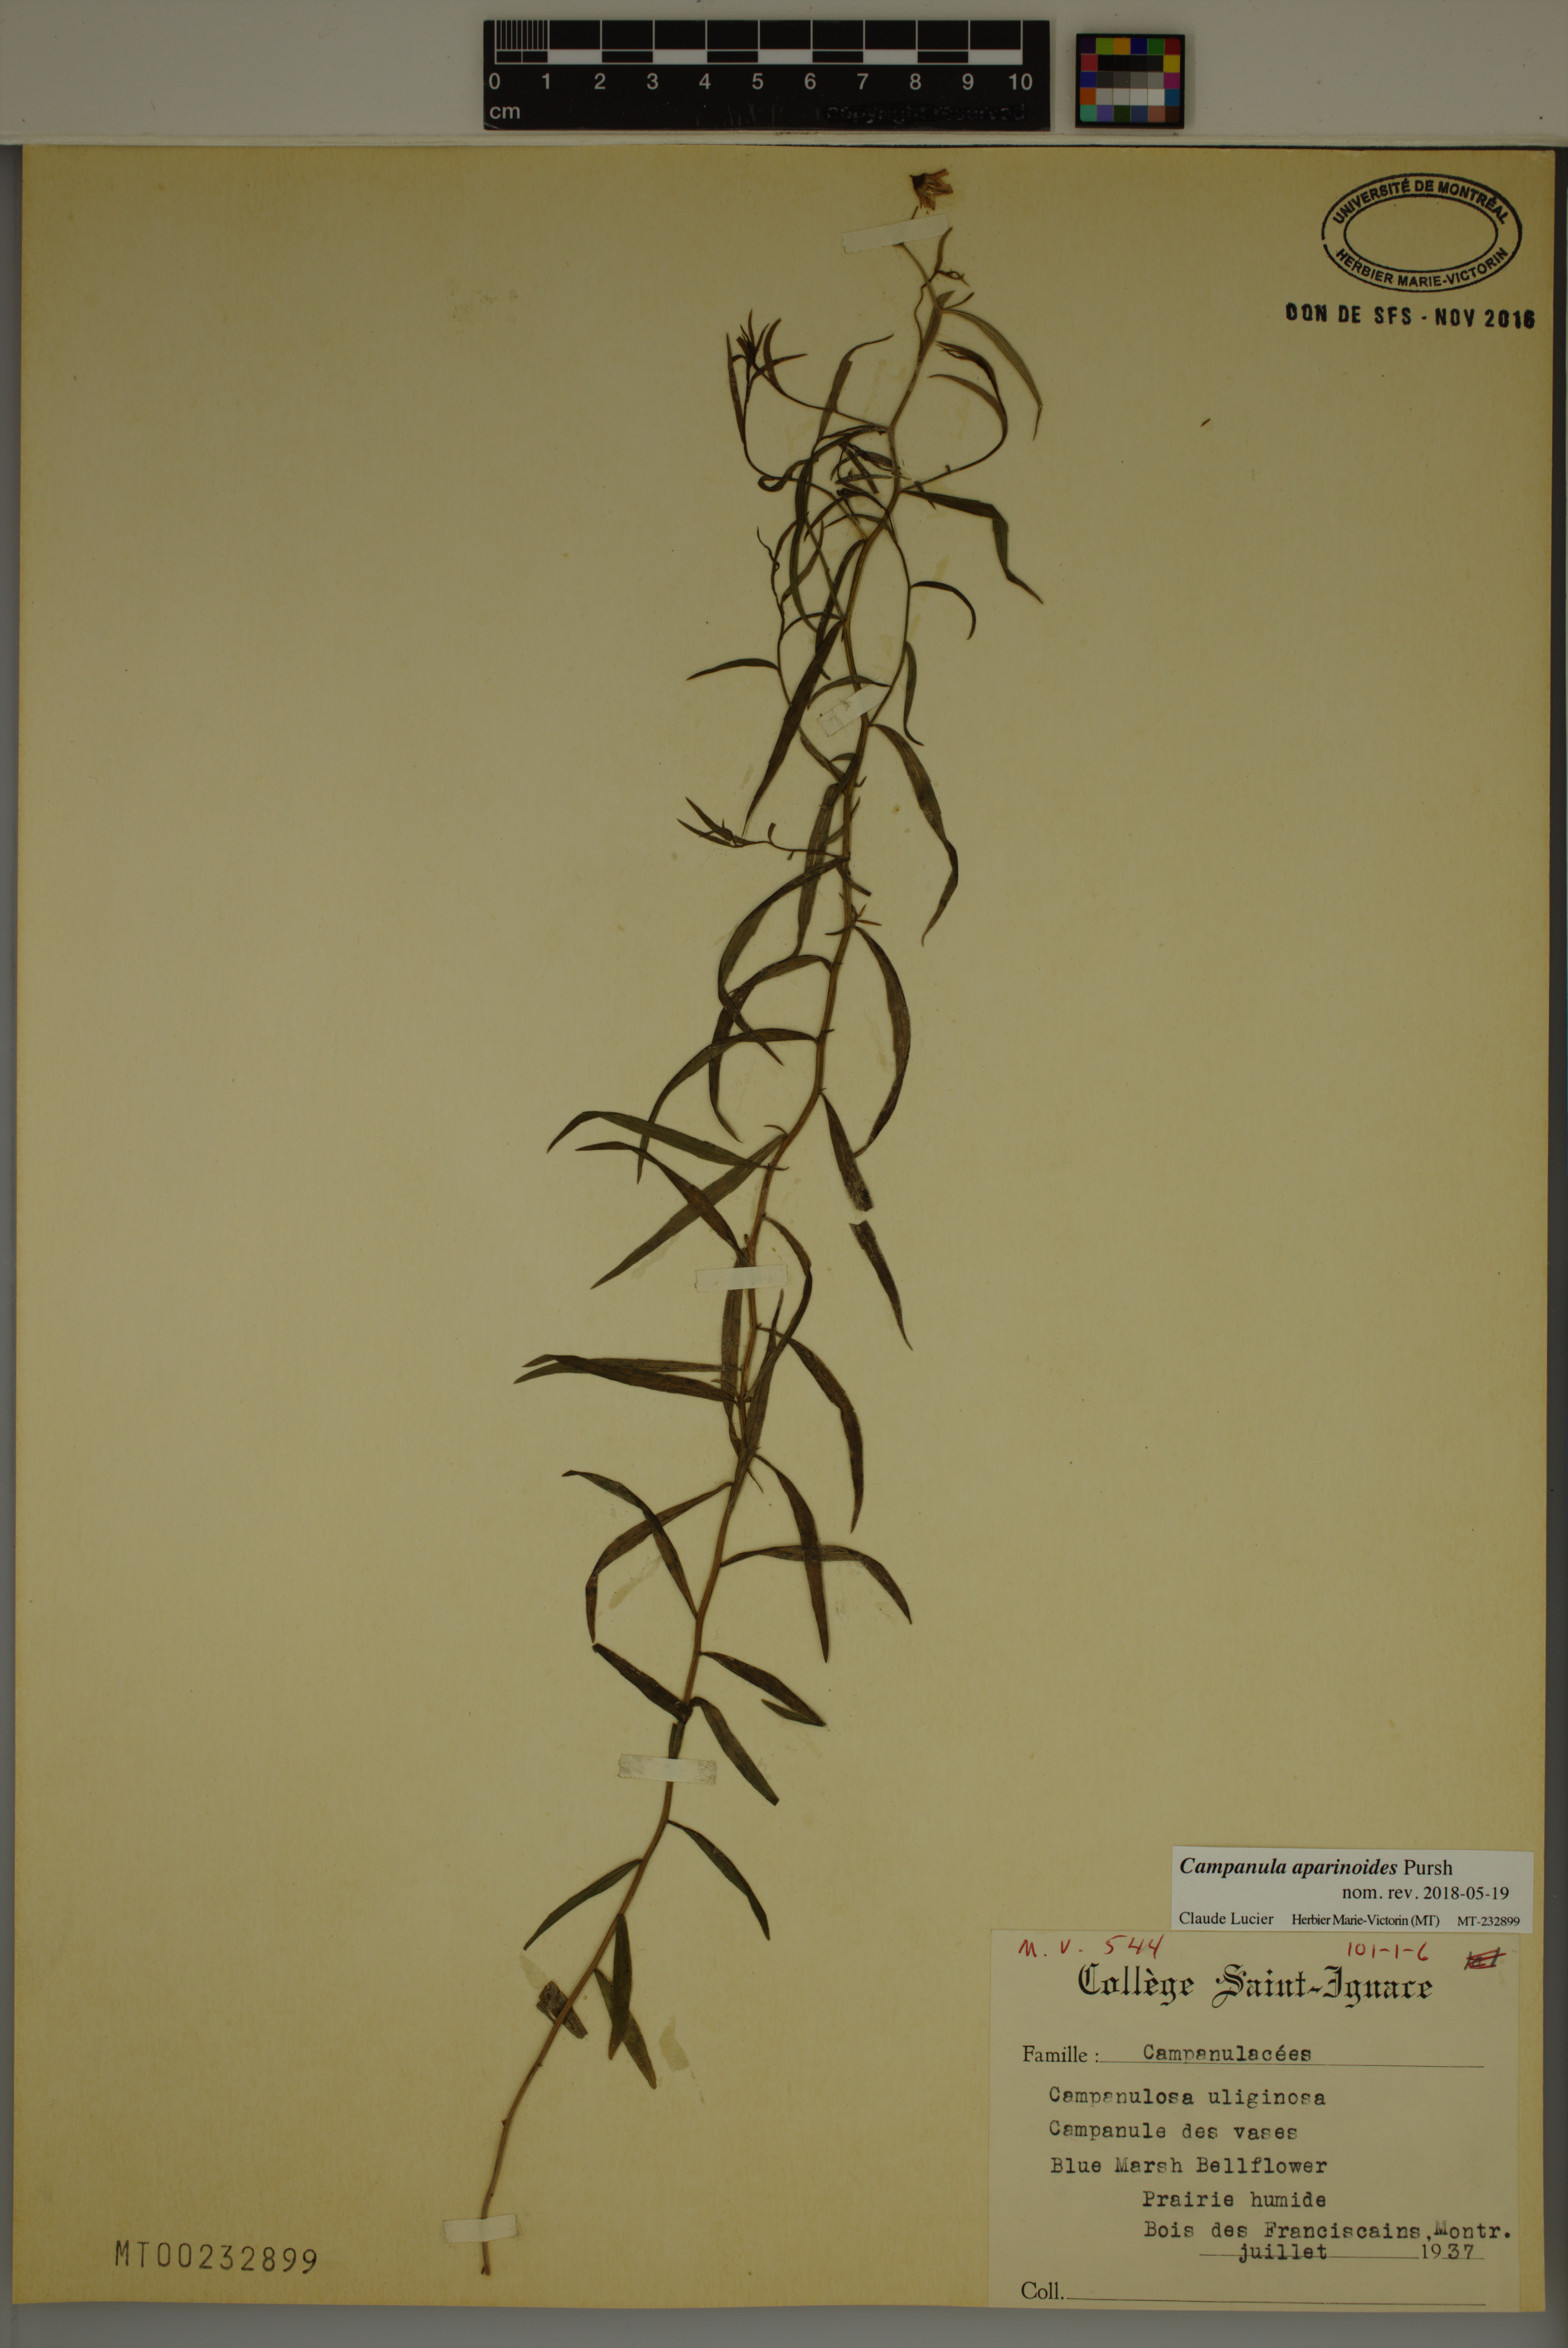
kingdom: Plantae
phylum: Tracheophyta
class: Magnoliopsida
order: Asterales
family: Campanulaceae
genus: Palustricodon
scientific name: Palustricodon aparinoides
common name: Bedstraw bellflower
